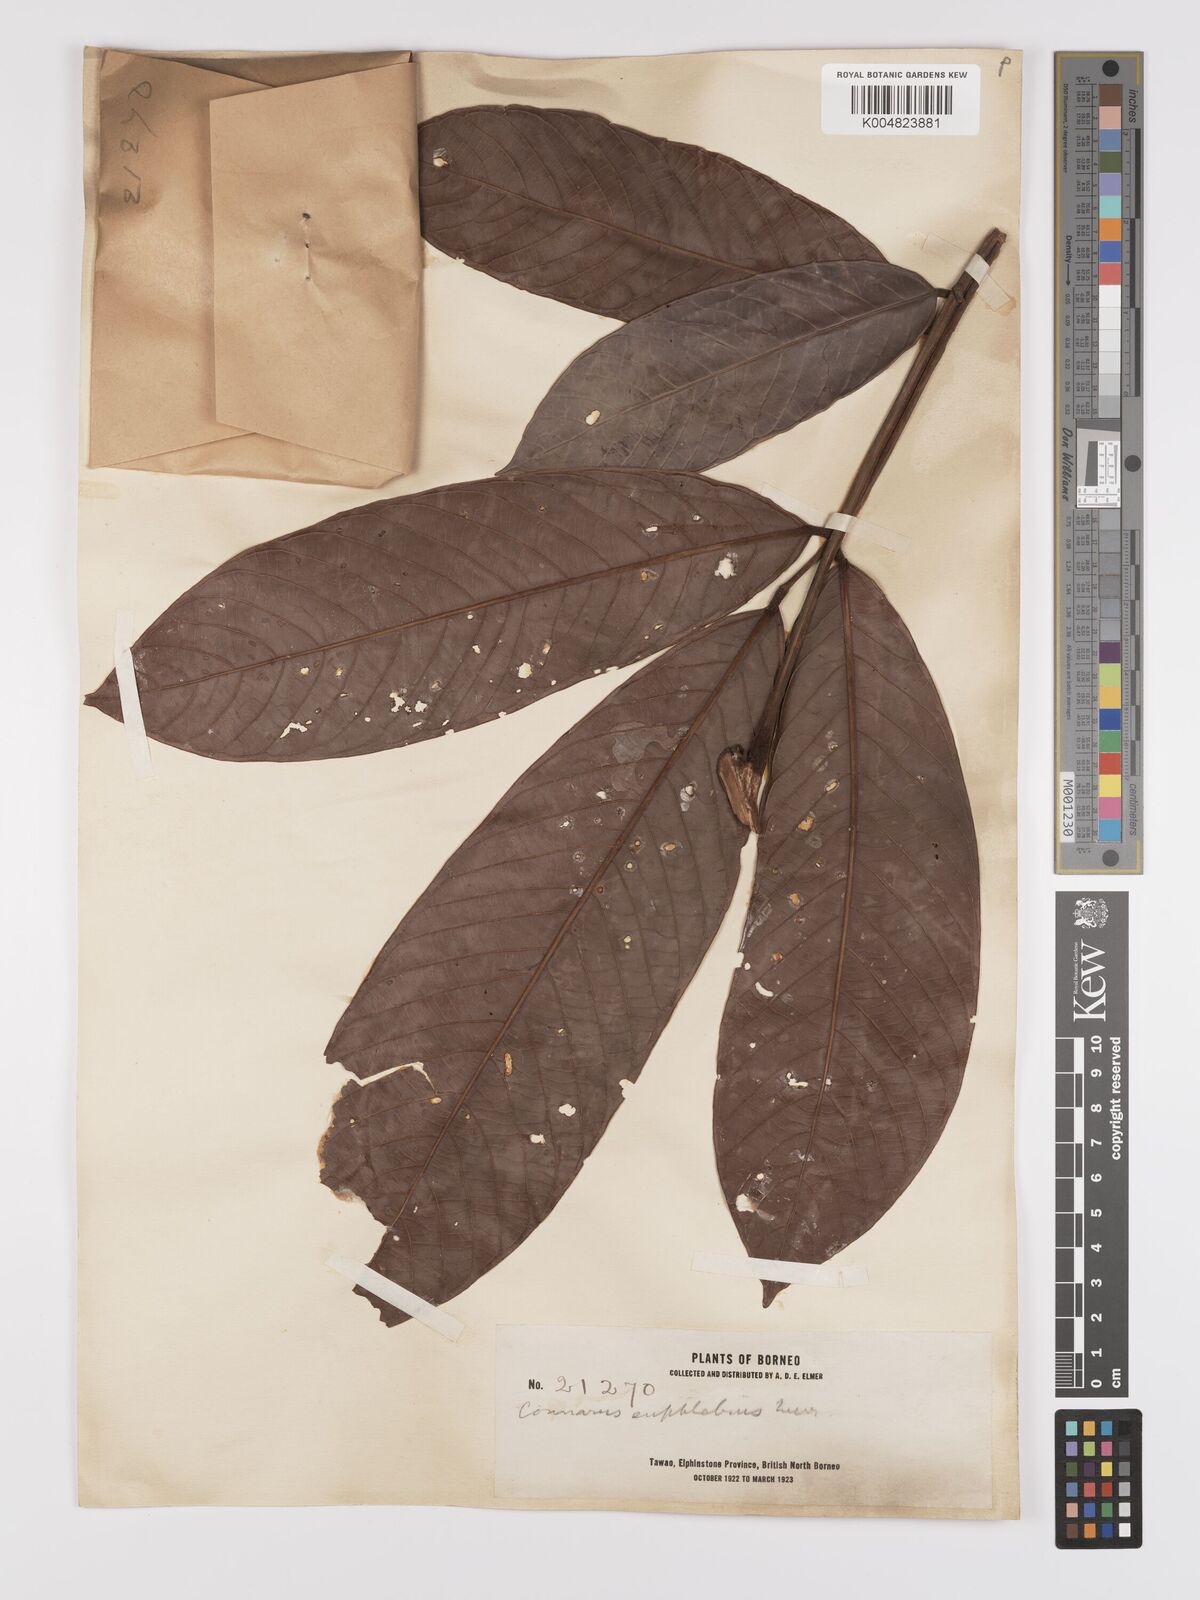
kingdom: Plantae
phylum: Tracheophyta
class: Magnoliopsida
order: Oxalidales
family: Connaraceae
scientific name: Connaraceae
